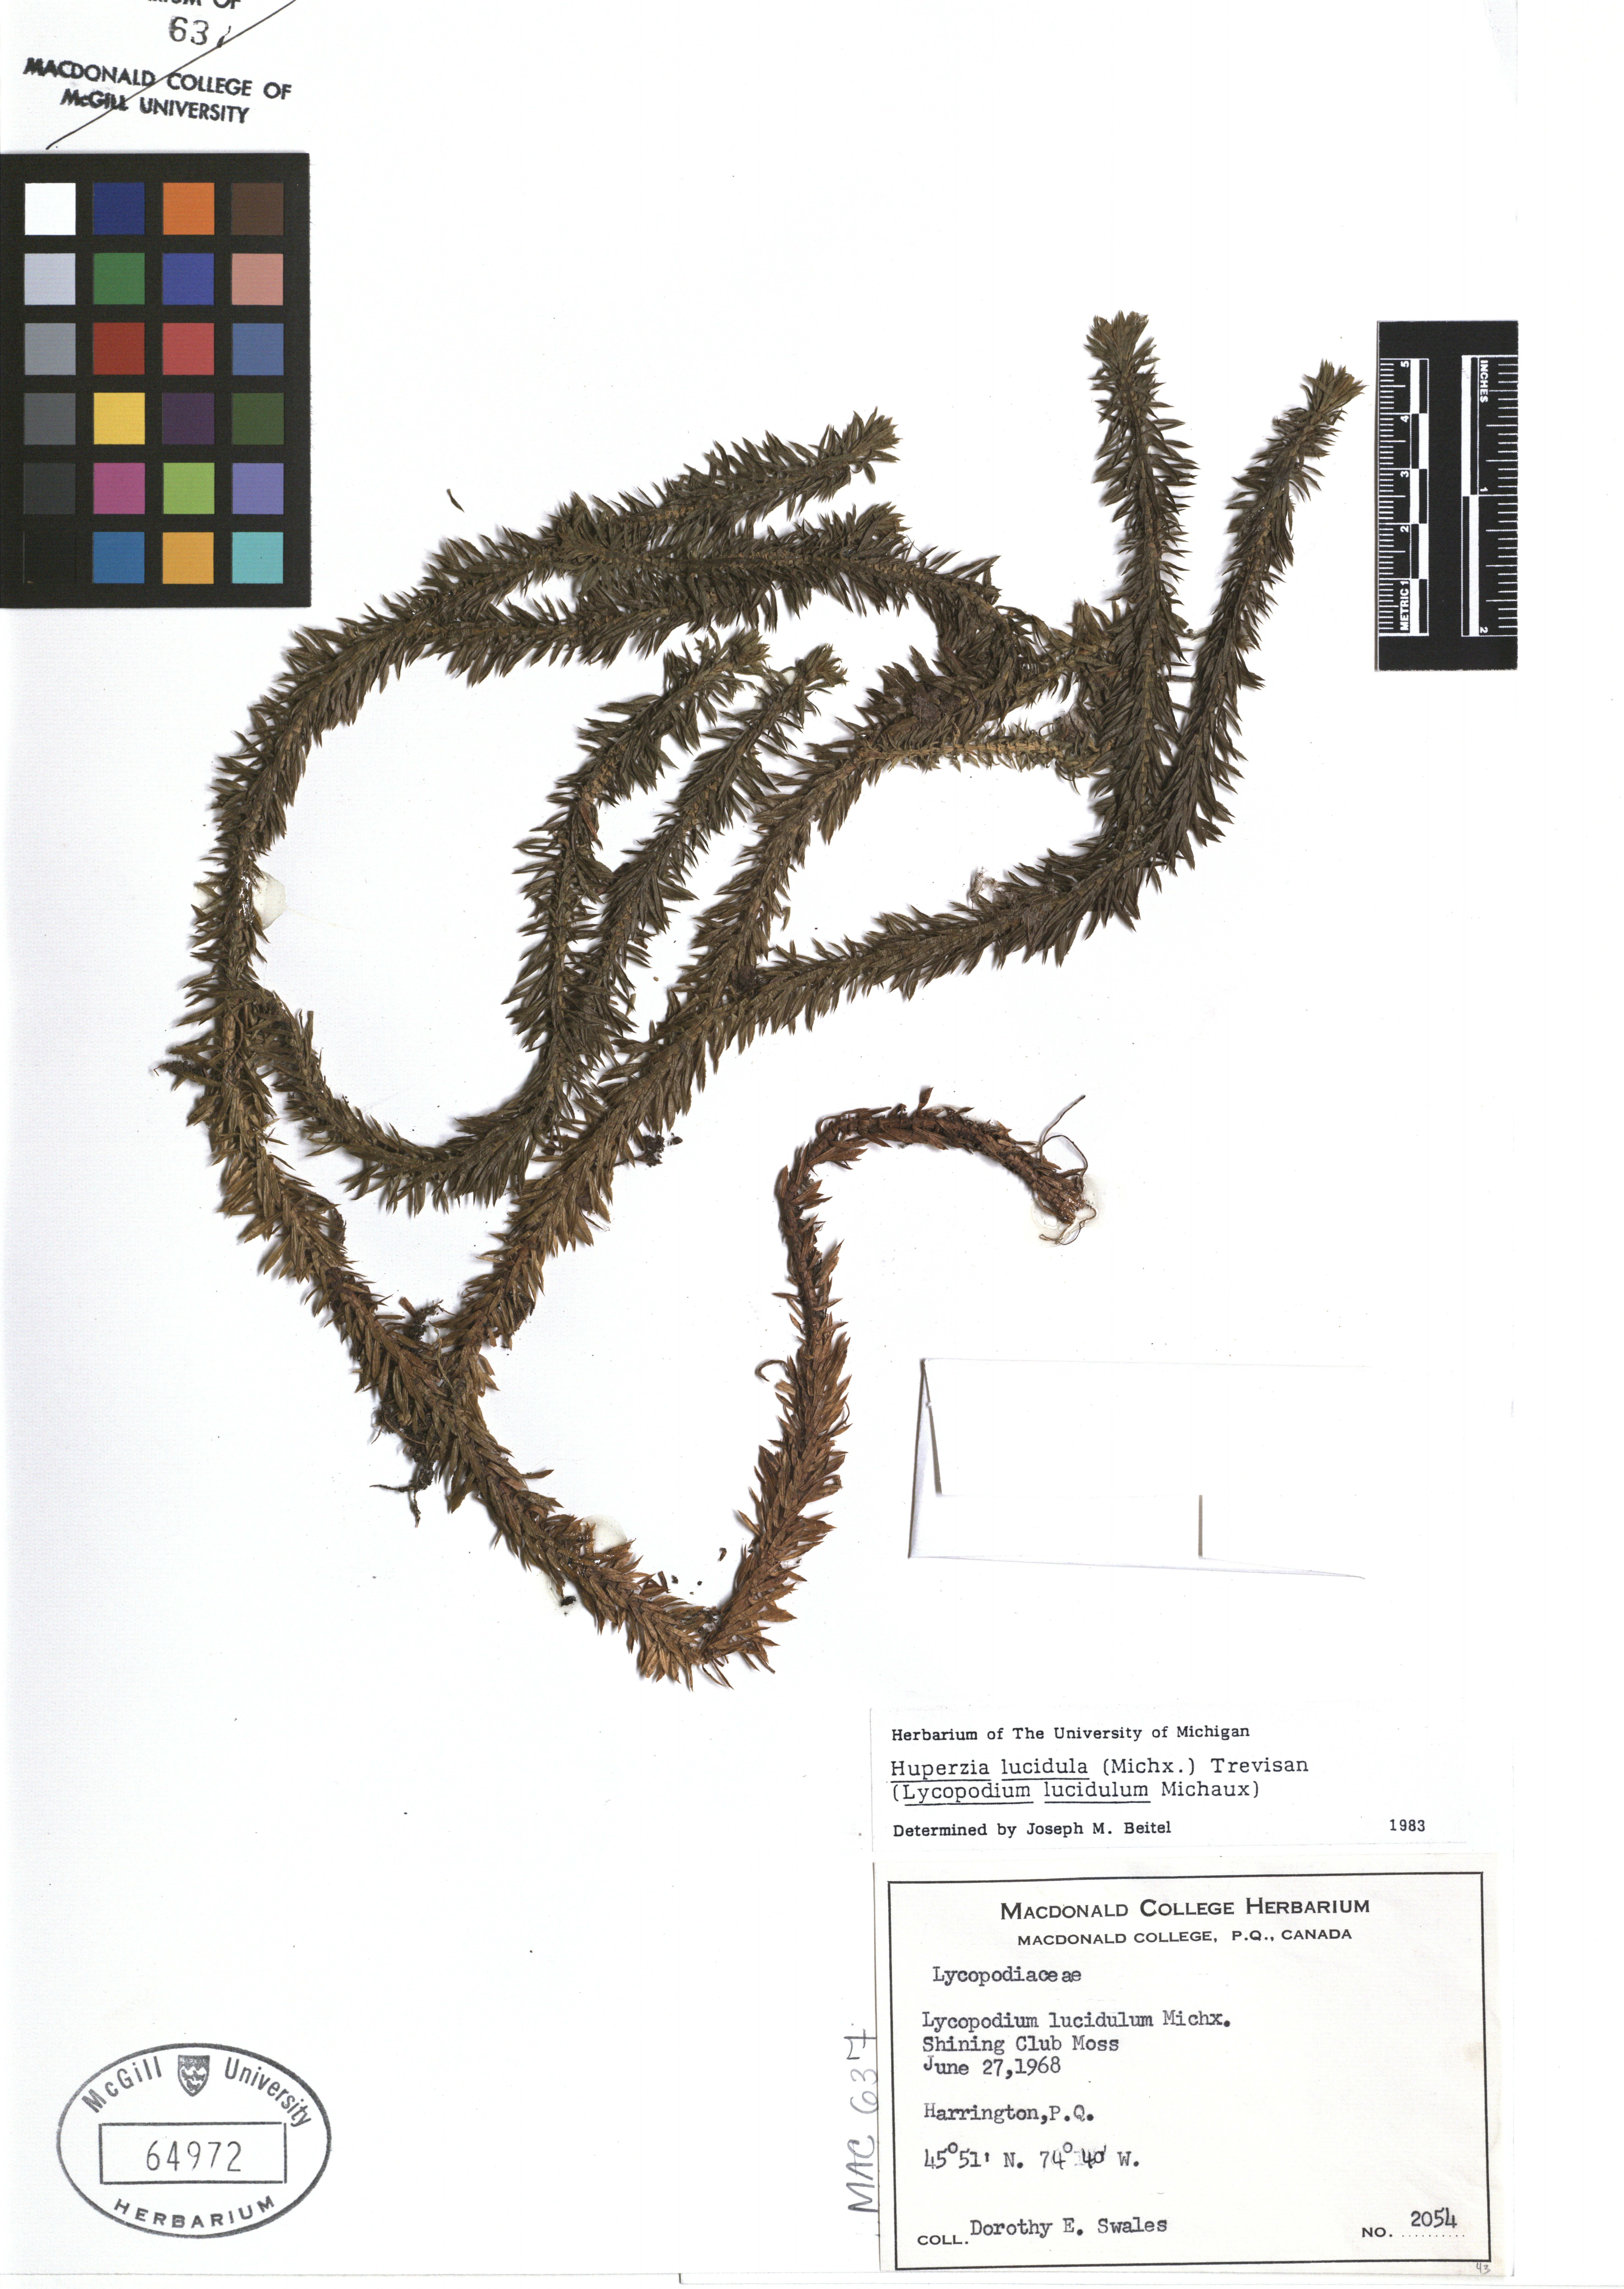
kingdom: Plantae
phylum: Tracheophyta
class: Lycopodiopsida
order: Lycopodiales
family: Lycopodiaceae
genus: Huperzia
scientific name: Huperzia lucidula
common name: Shining clubmoss
